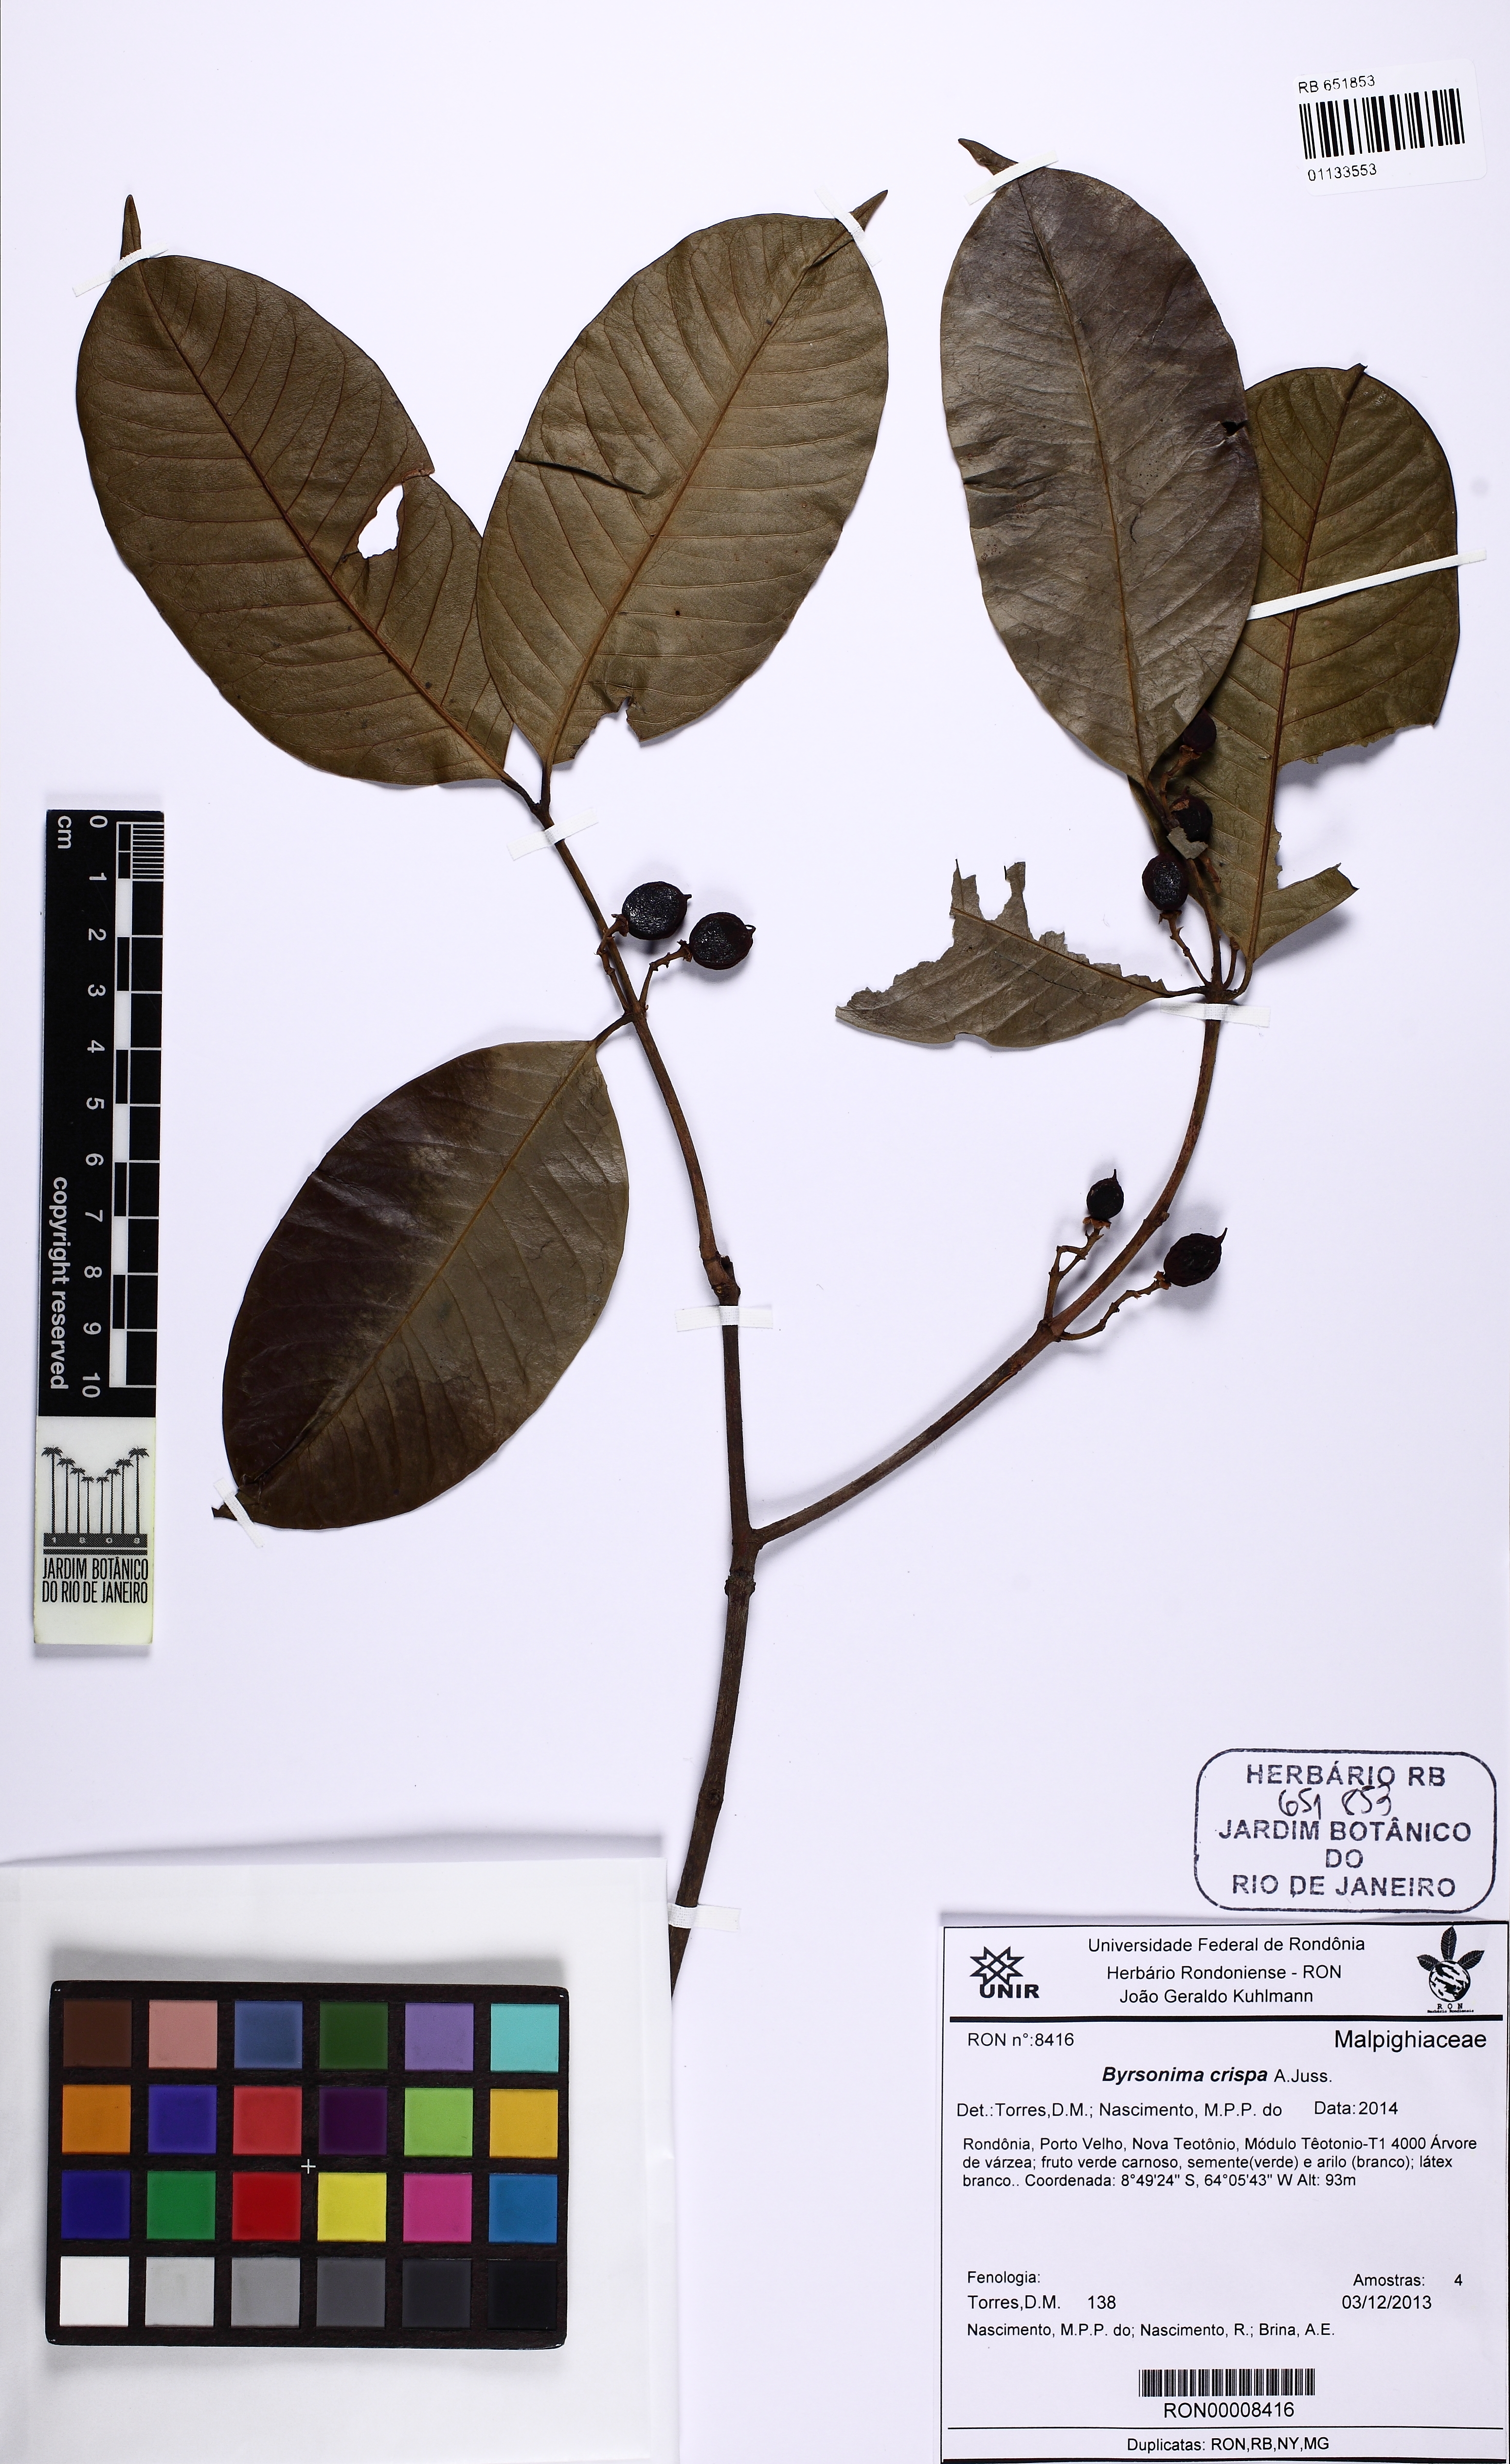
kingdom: Plantae
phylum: Tracheophyta
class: Magnoliopsida
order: Malpighiales
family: Malpighiaceae
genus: Byrsonima
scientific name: Byrsonima crispa
